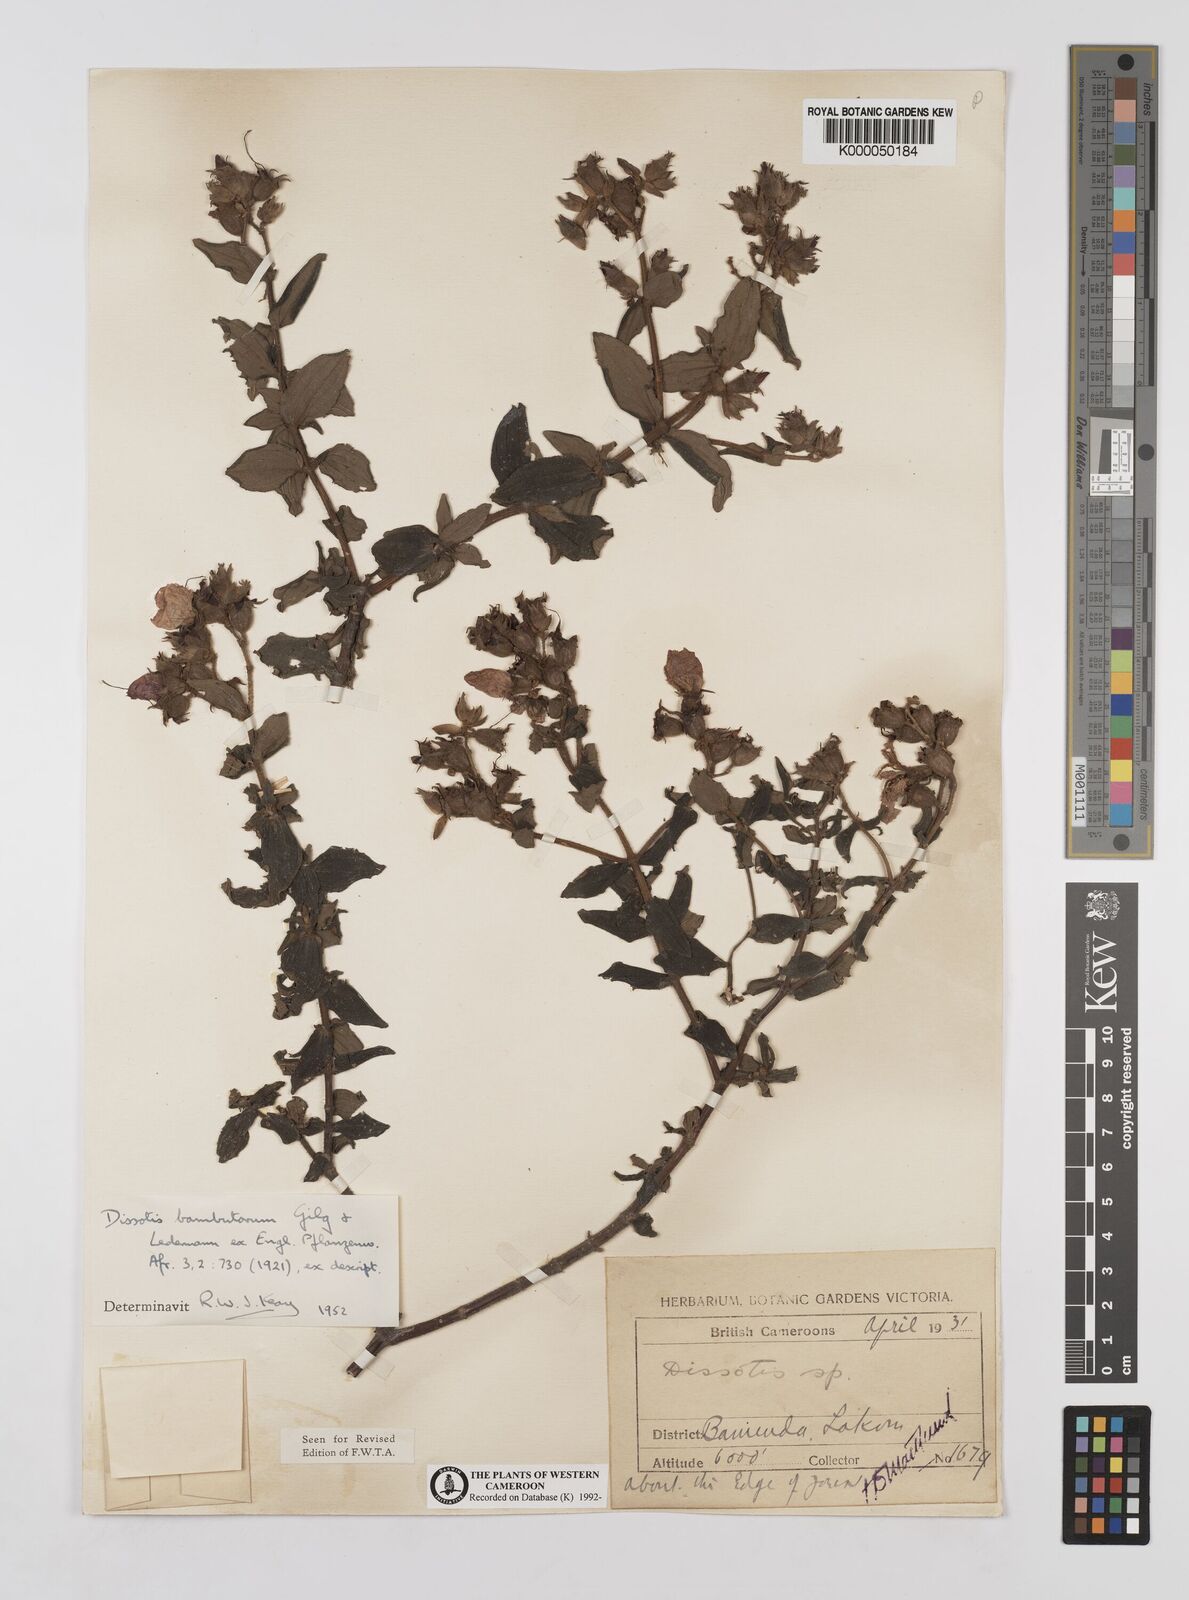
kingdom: Plantae
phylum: Tracheophyta
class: Magnoliopsida
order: Myrtales
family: Melastomataceae
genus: Argyrella
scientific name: Argyrella bambutorum
